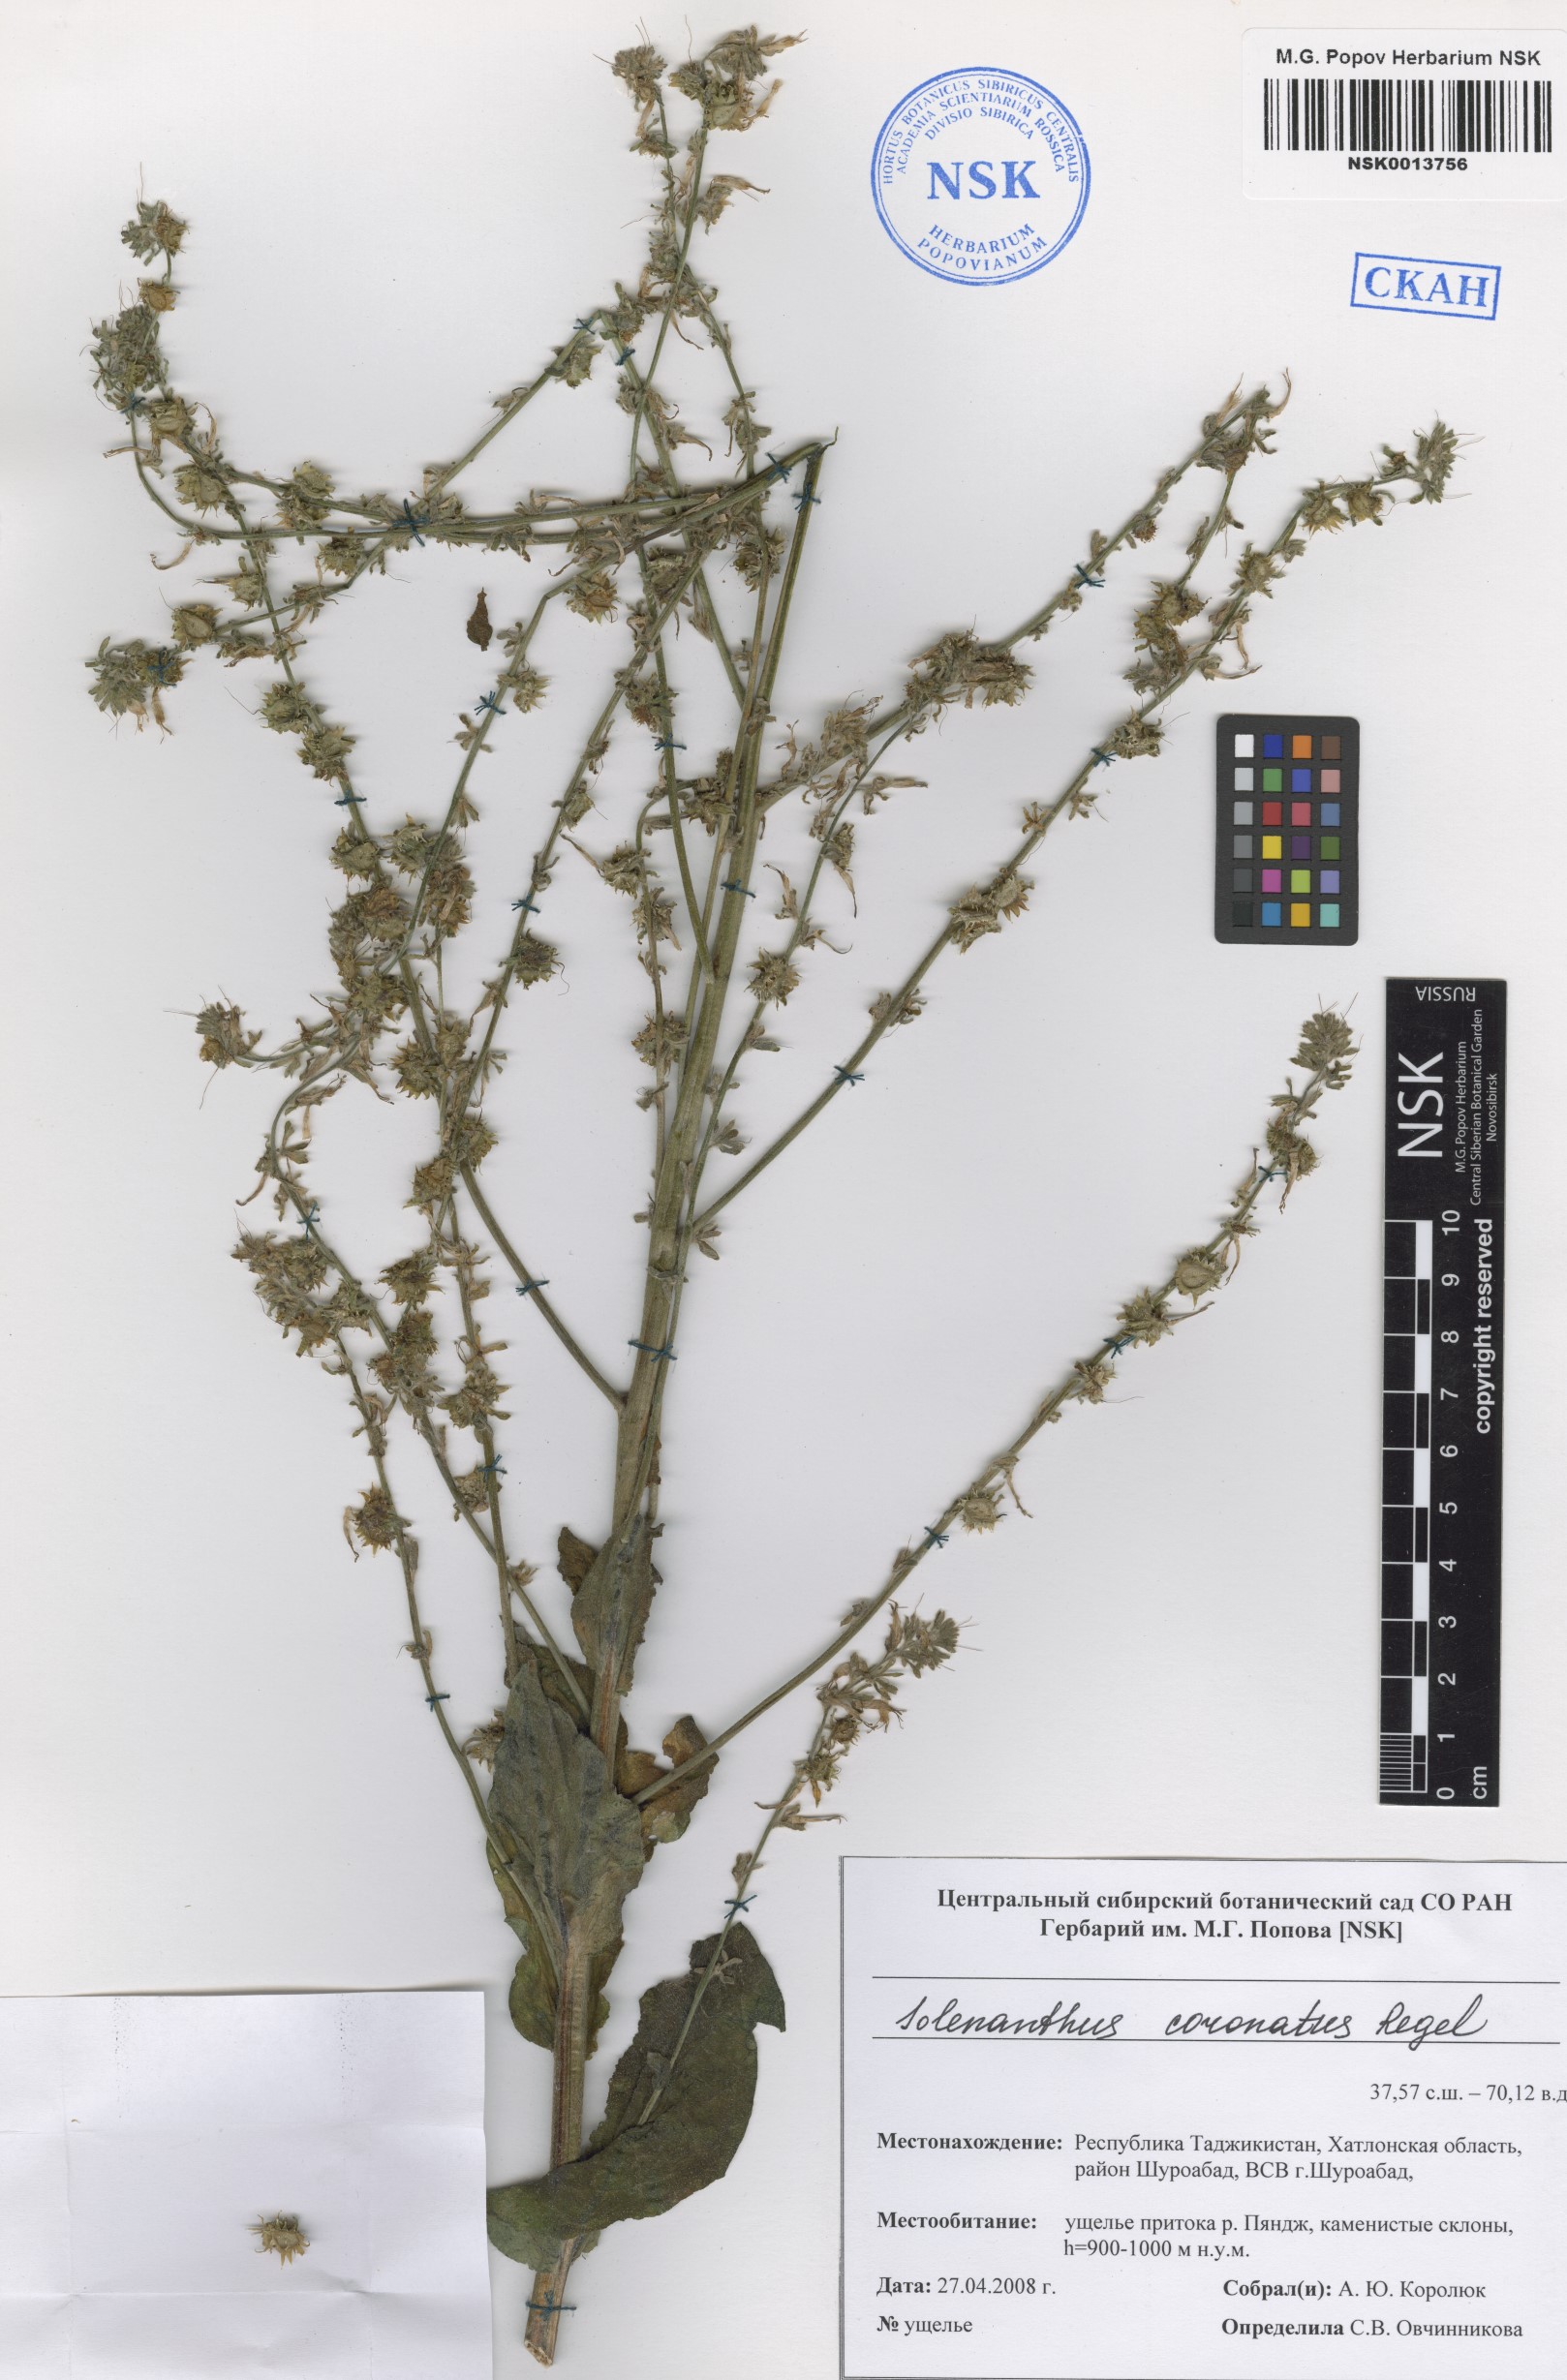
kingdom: Plantae
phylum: Tracheophyta
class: Magnoliopsida
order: Boraginales
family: Boraginaceae
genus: Solenanthus
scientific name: Solenanthus circinnatus
